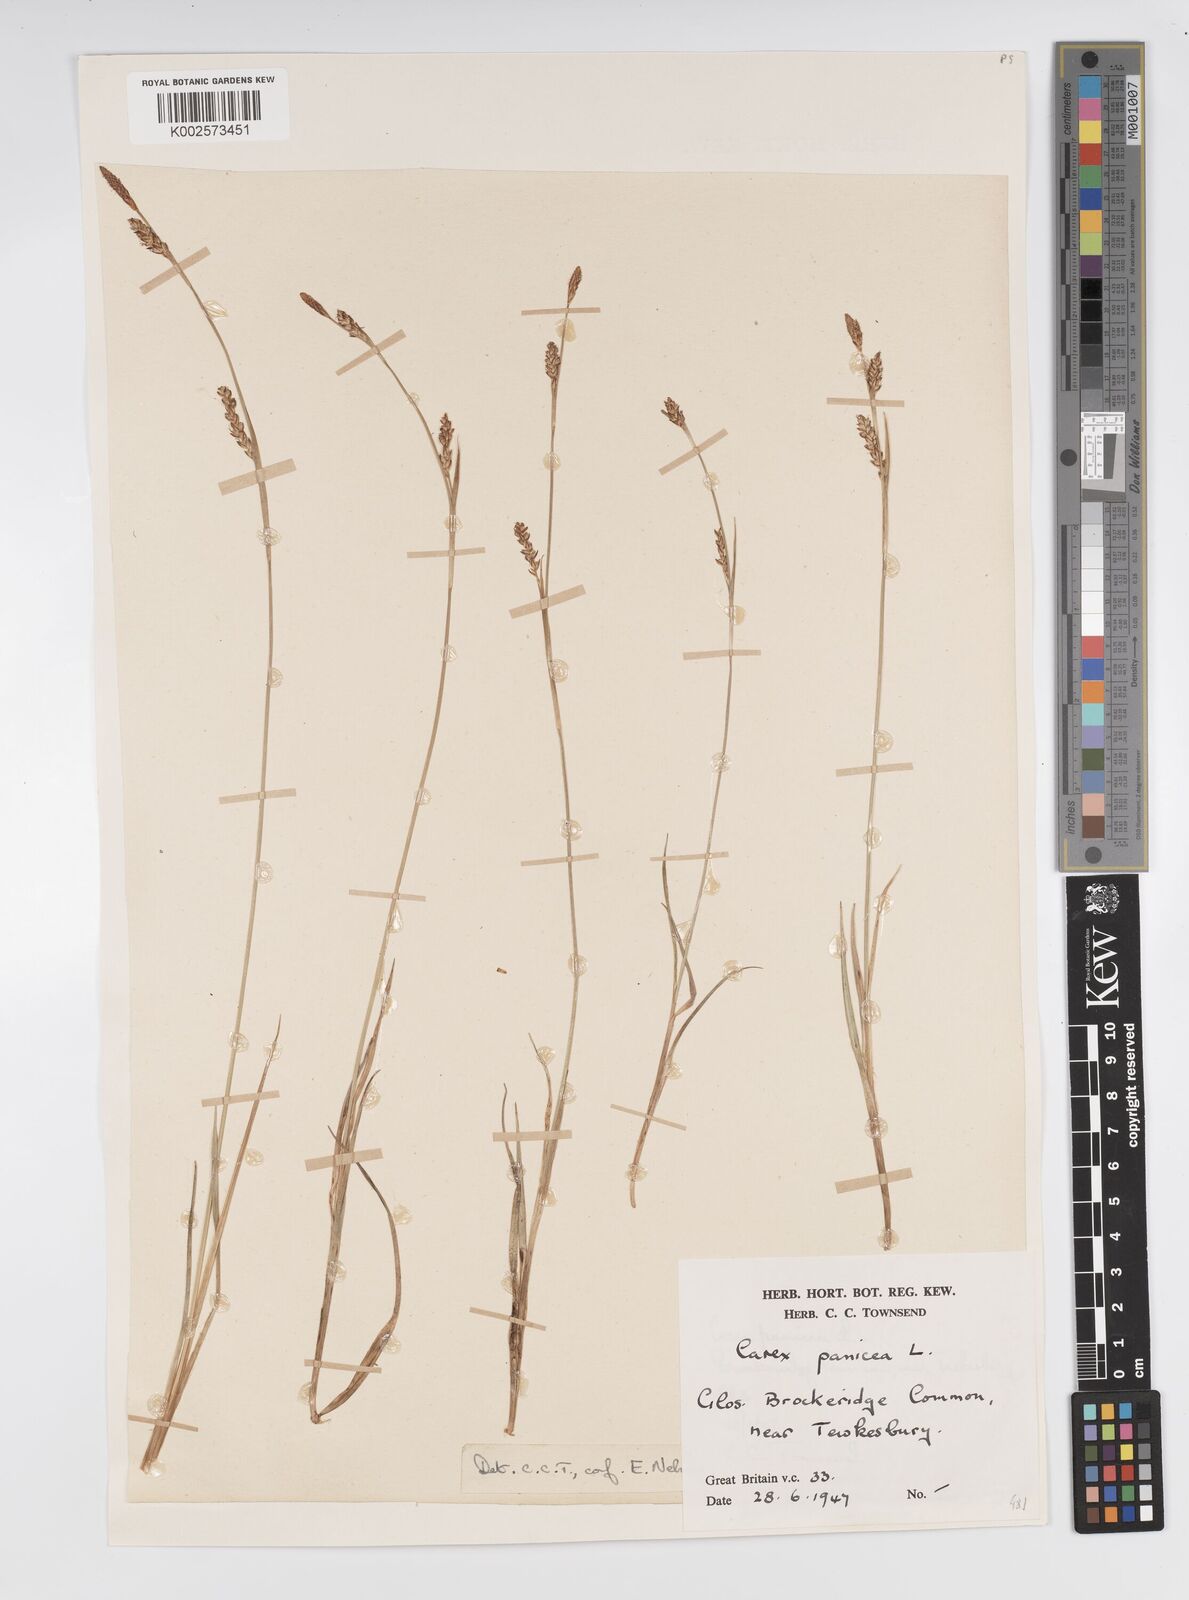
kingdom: Plantae
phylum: Tracheophyta
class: Liliopsida
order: Poales
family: Cyperaceae
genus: Carex
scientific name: Carex panicea
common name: Carnation sedge
